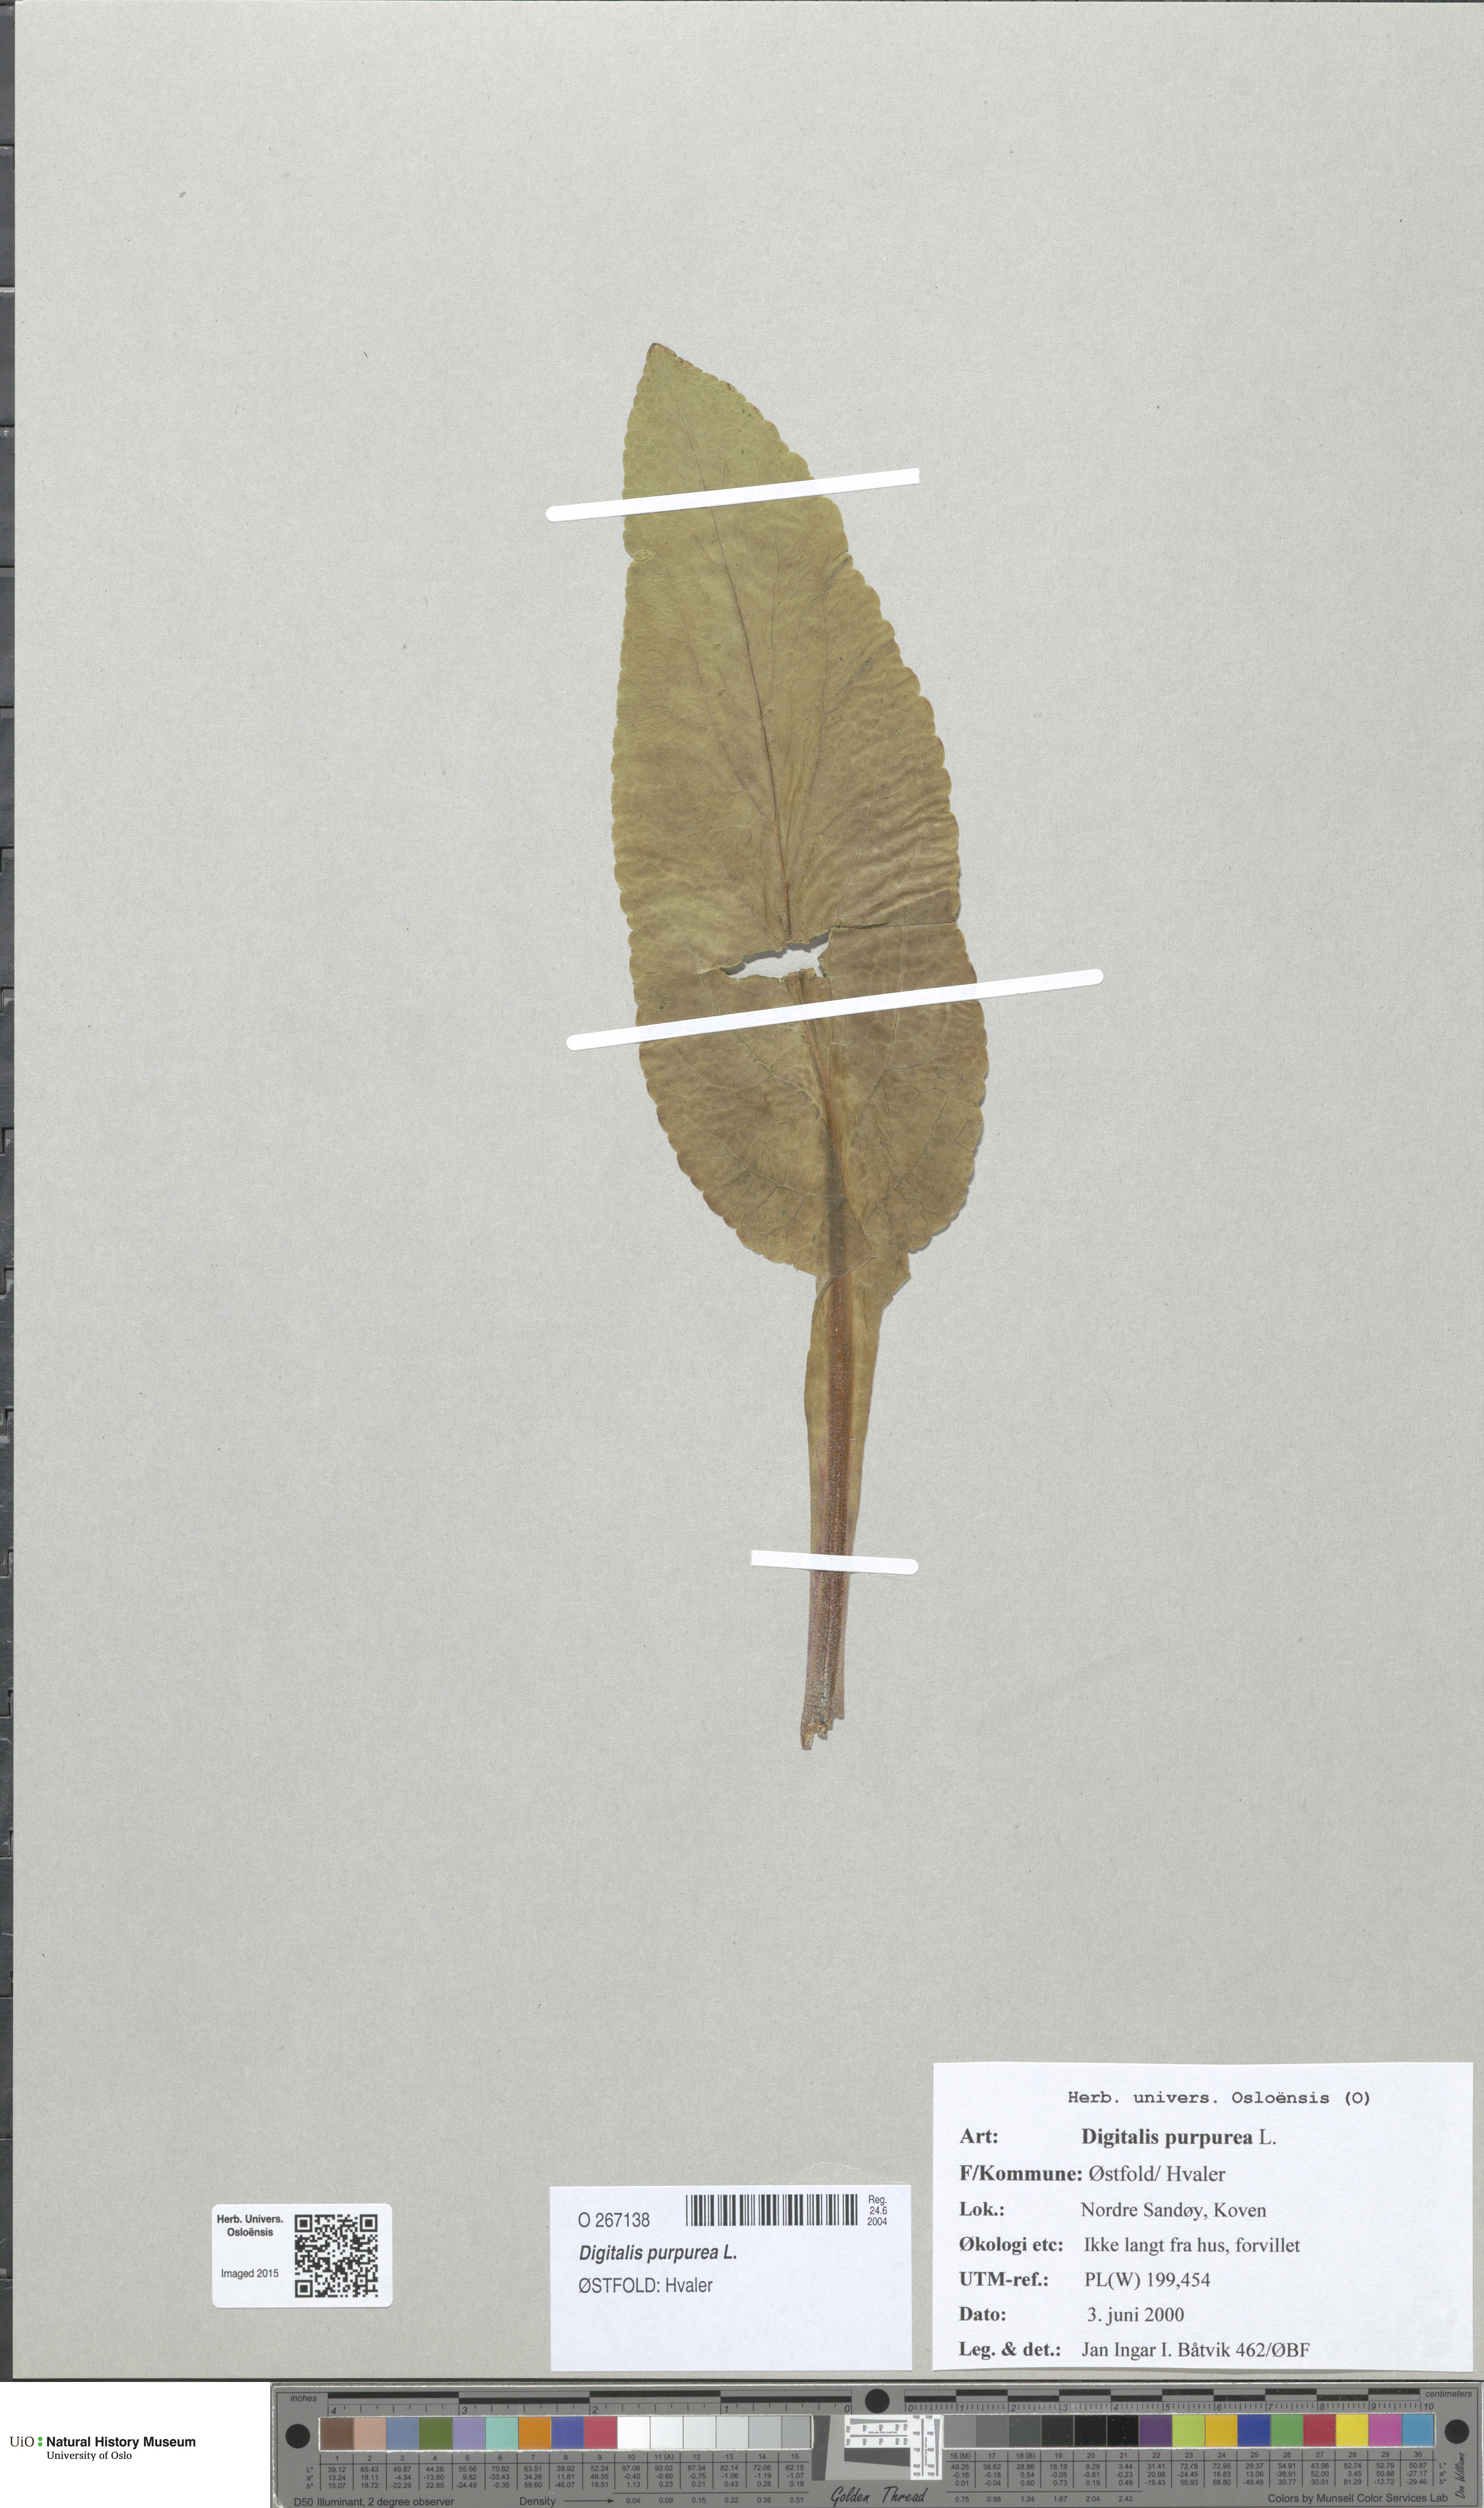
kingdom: Plantae
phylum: Tracheophyta
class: Magnoliopsida
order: Lamiales
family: Plantaginaceae
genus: Digitalis
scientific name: Digitalis purpurea
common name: Foxglove
